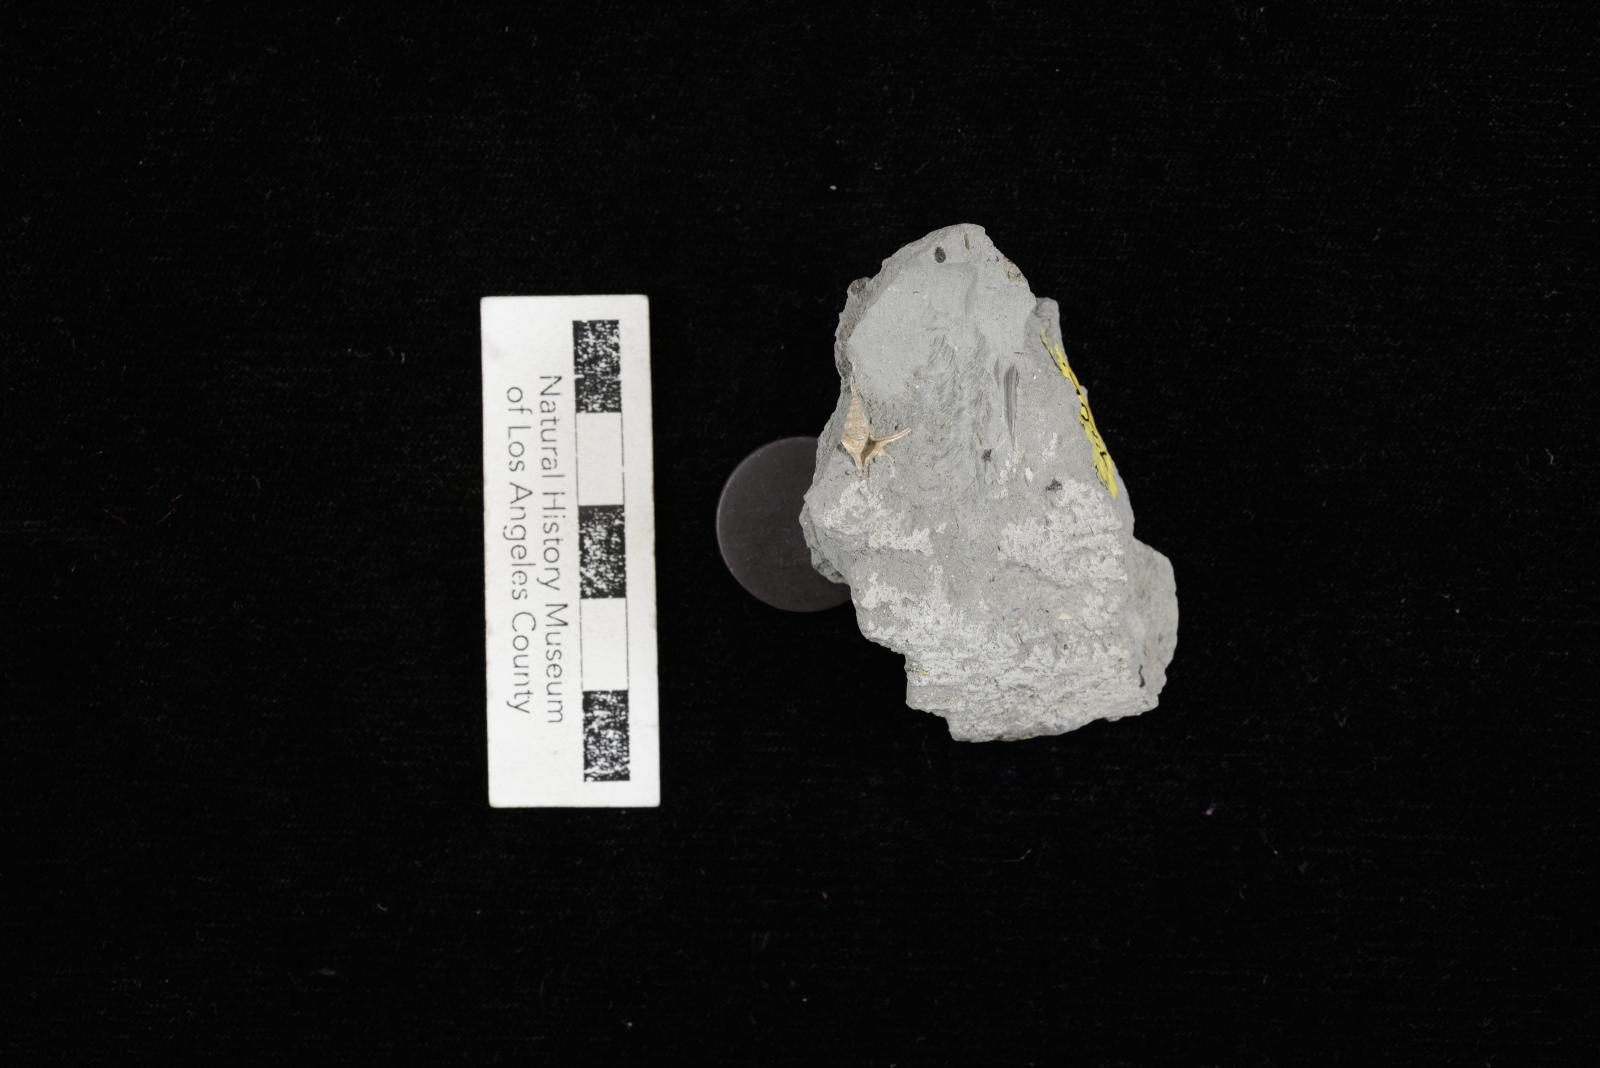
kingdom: Animalia
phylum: Mollusca
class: Gastropoda
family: Turritellidae
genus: Turritella
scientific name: Turritella chicoensis
